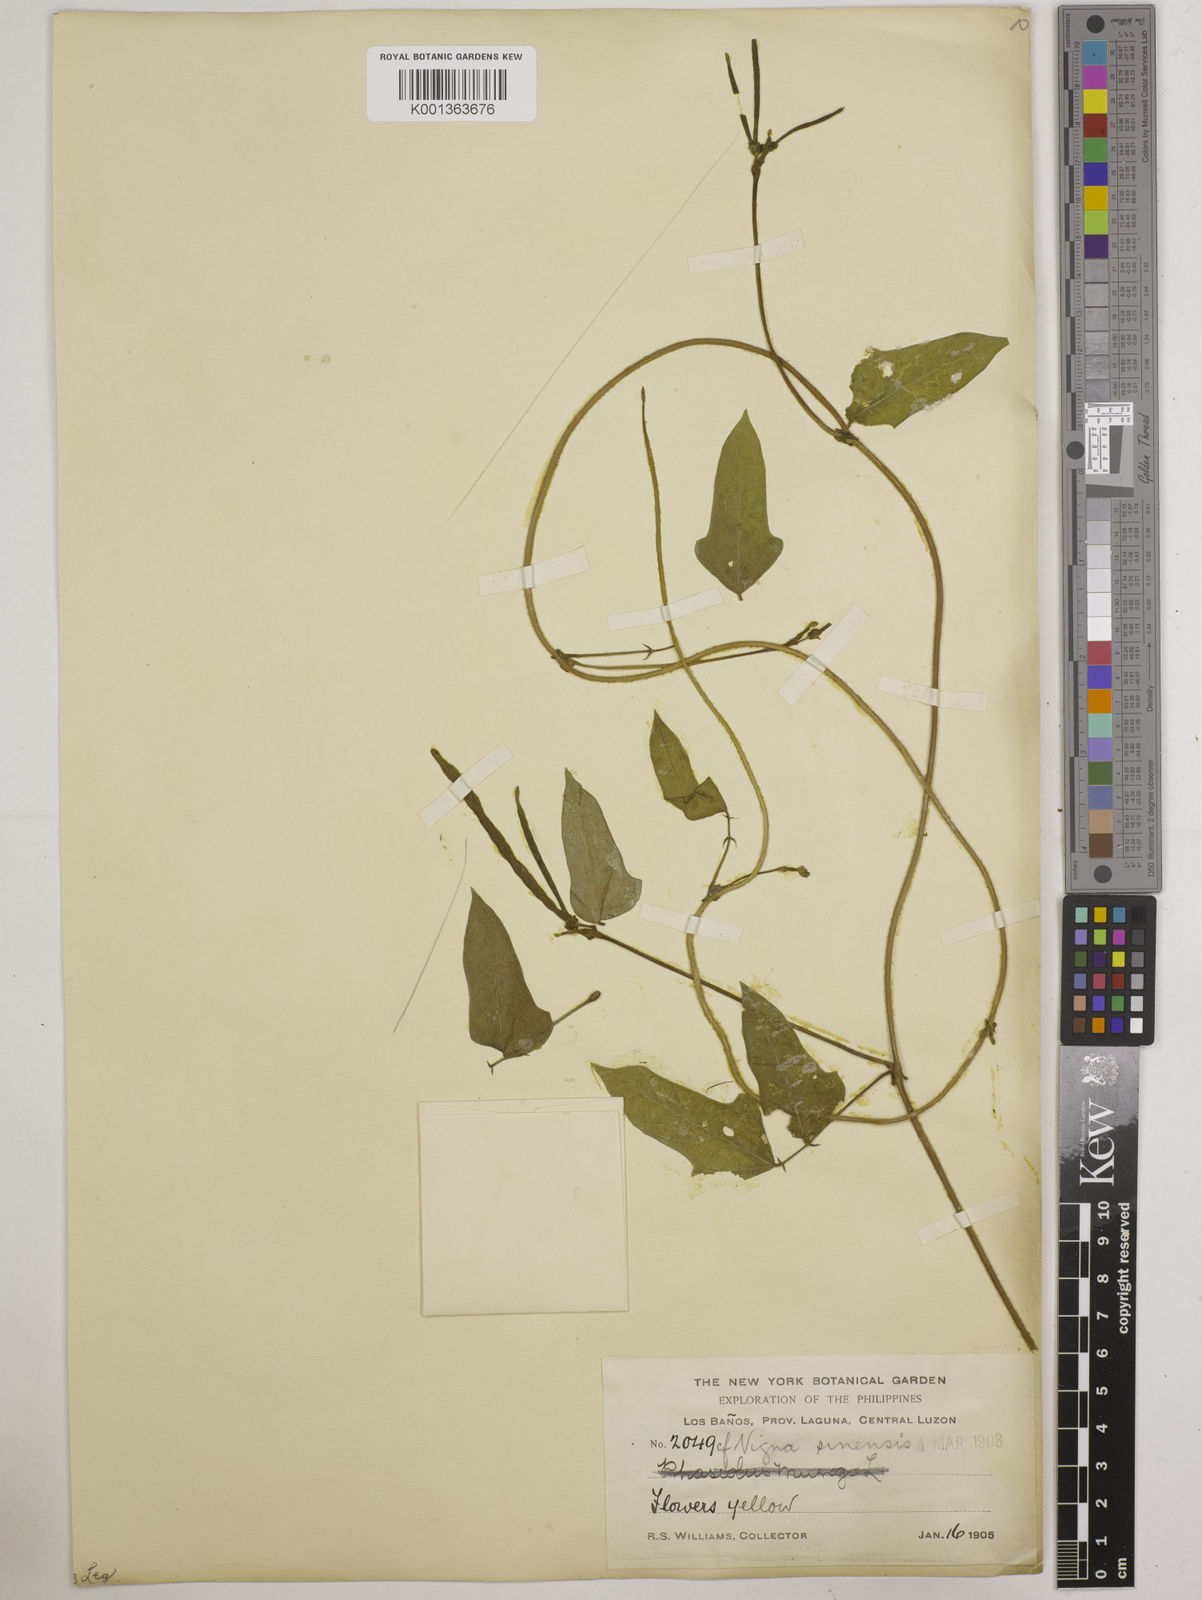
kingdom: Plantae
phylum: Tracheophyta
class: Magnoliopsida
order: Fabales
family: Fabaceae
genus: Vigna
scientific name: Vigna unguiculata
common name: Cowpea
